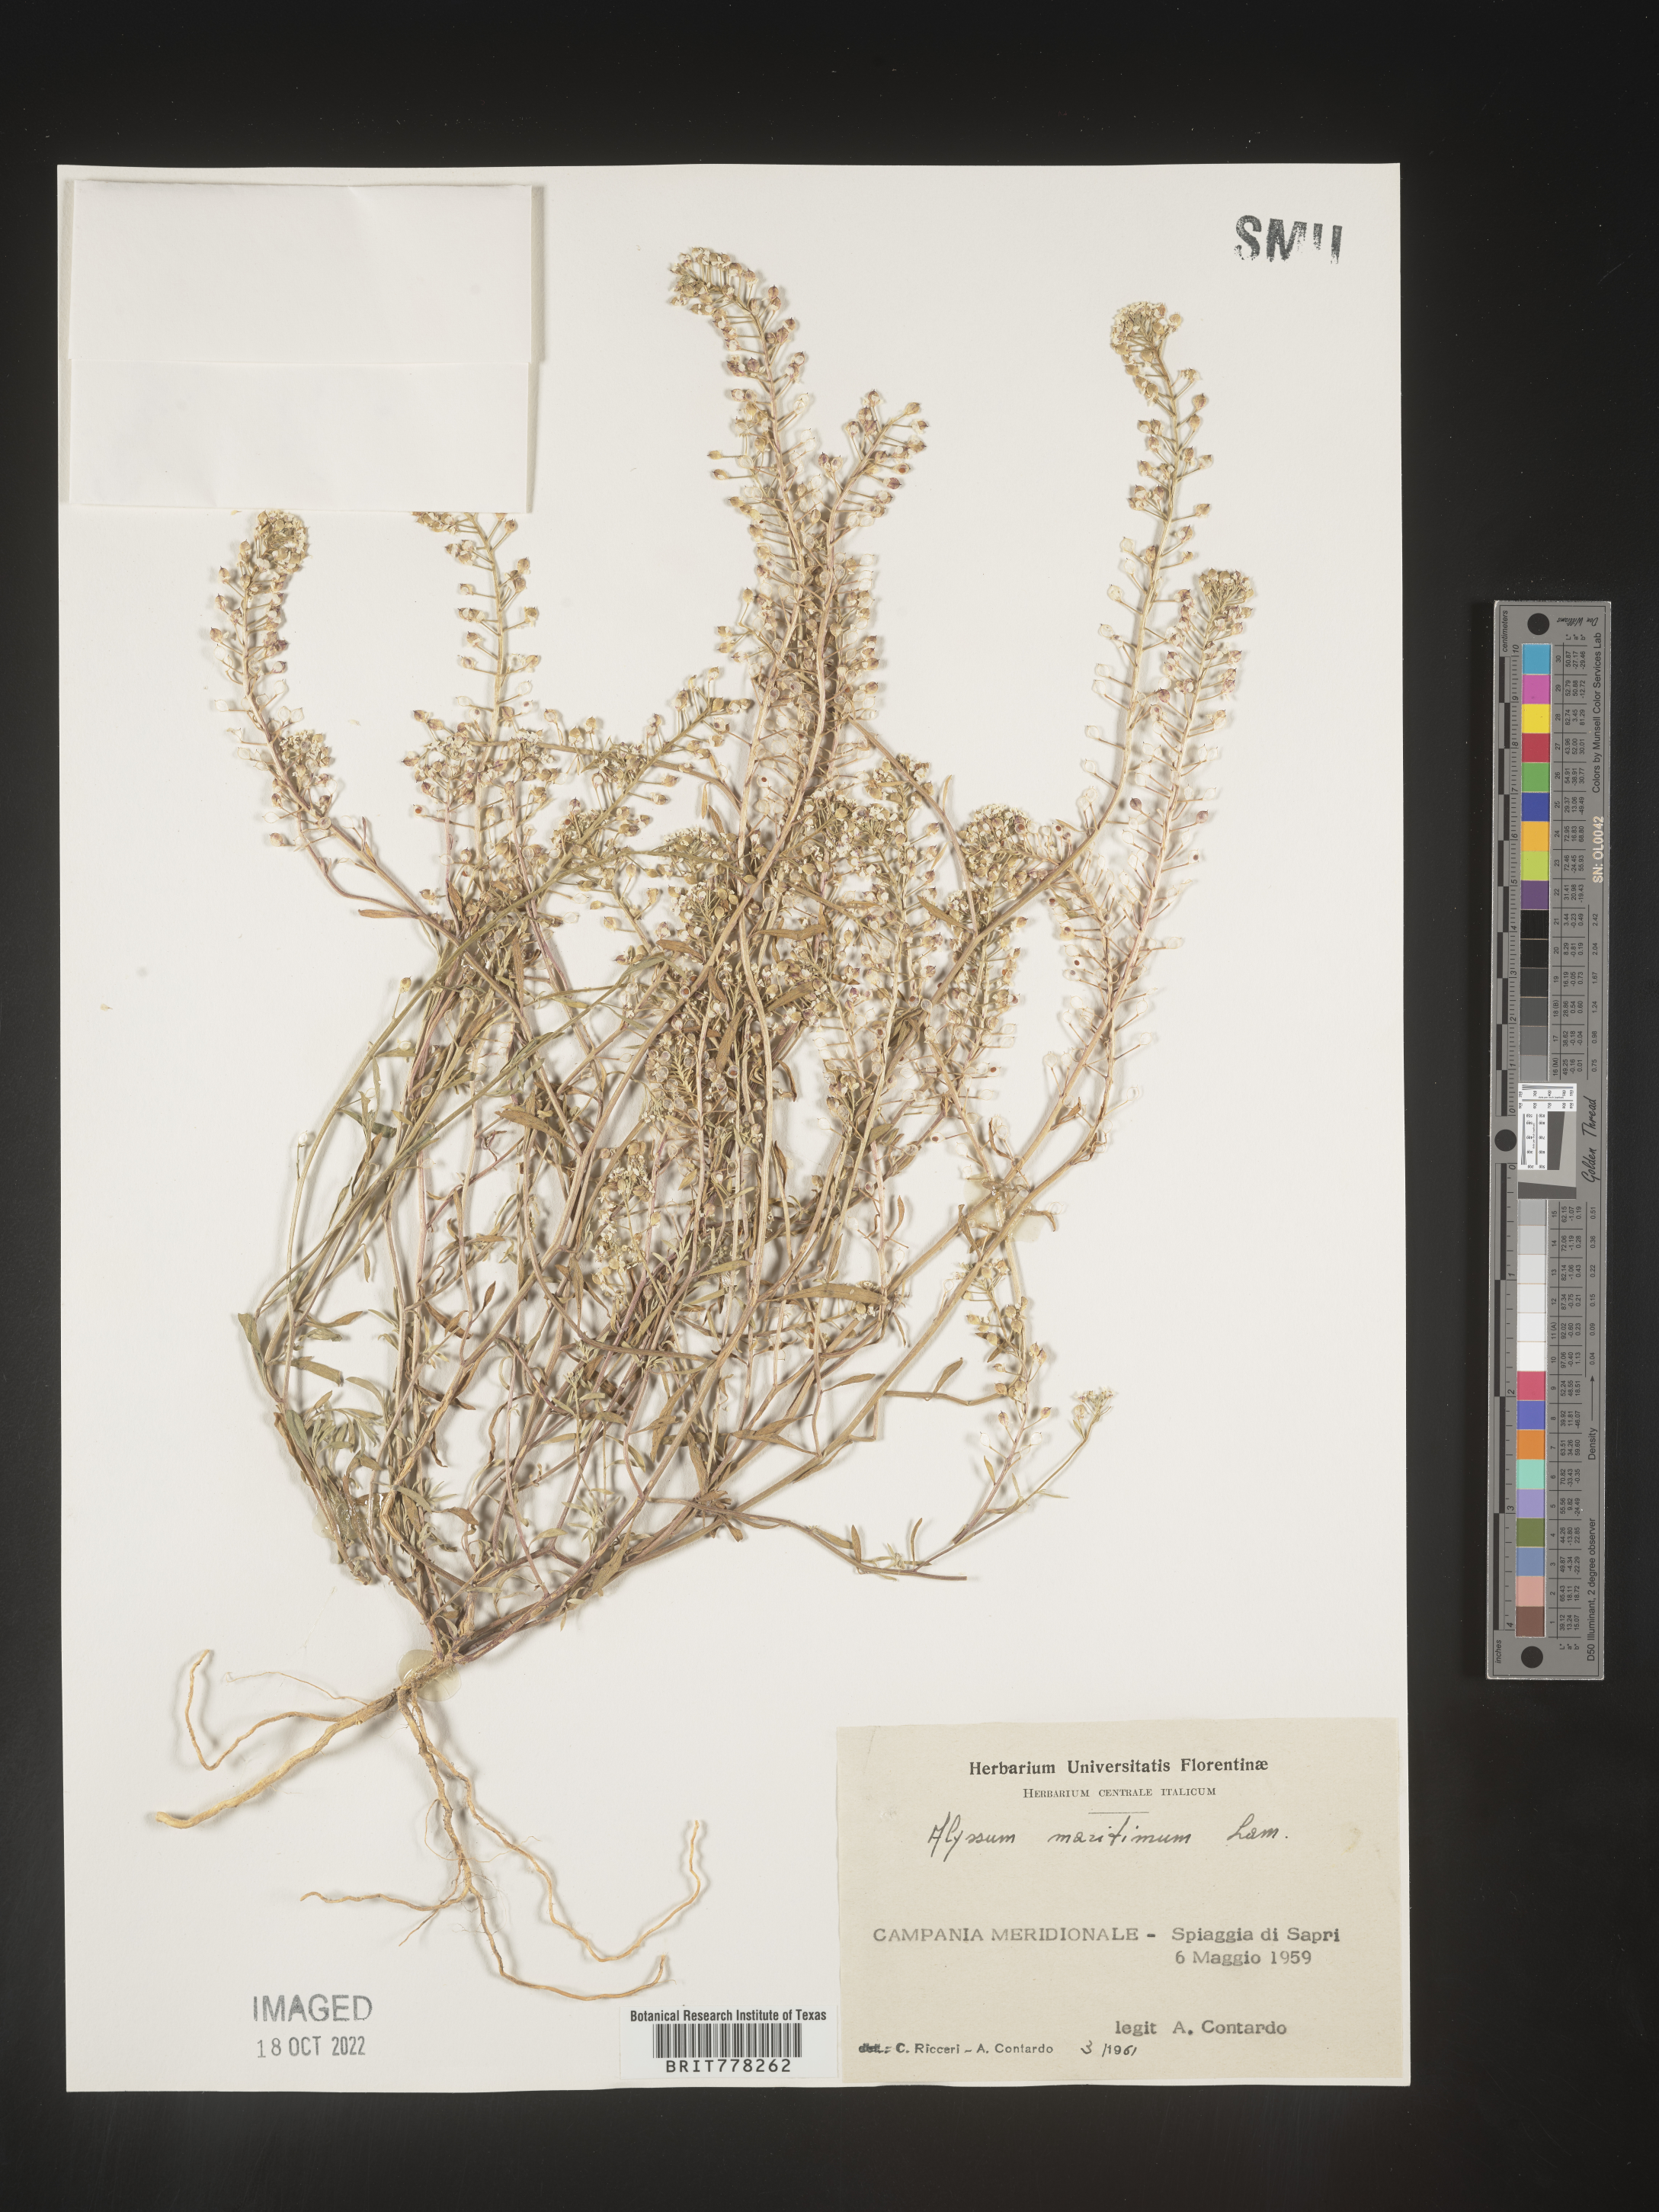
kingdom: Plantae
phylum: Tracheophyta
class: Magnoliopsida
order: Brassicales
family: Brassicaceae
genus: Lobularia
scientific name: Lobularia
